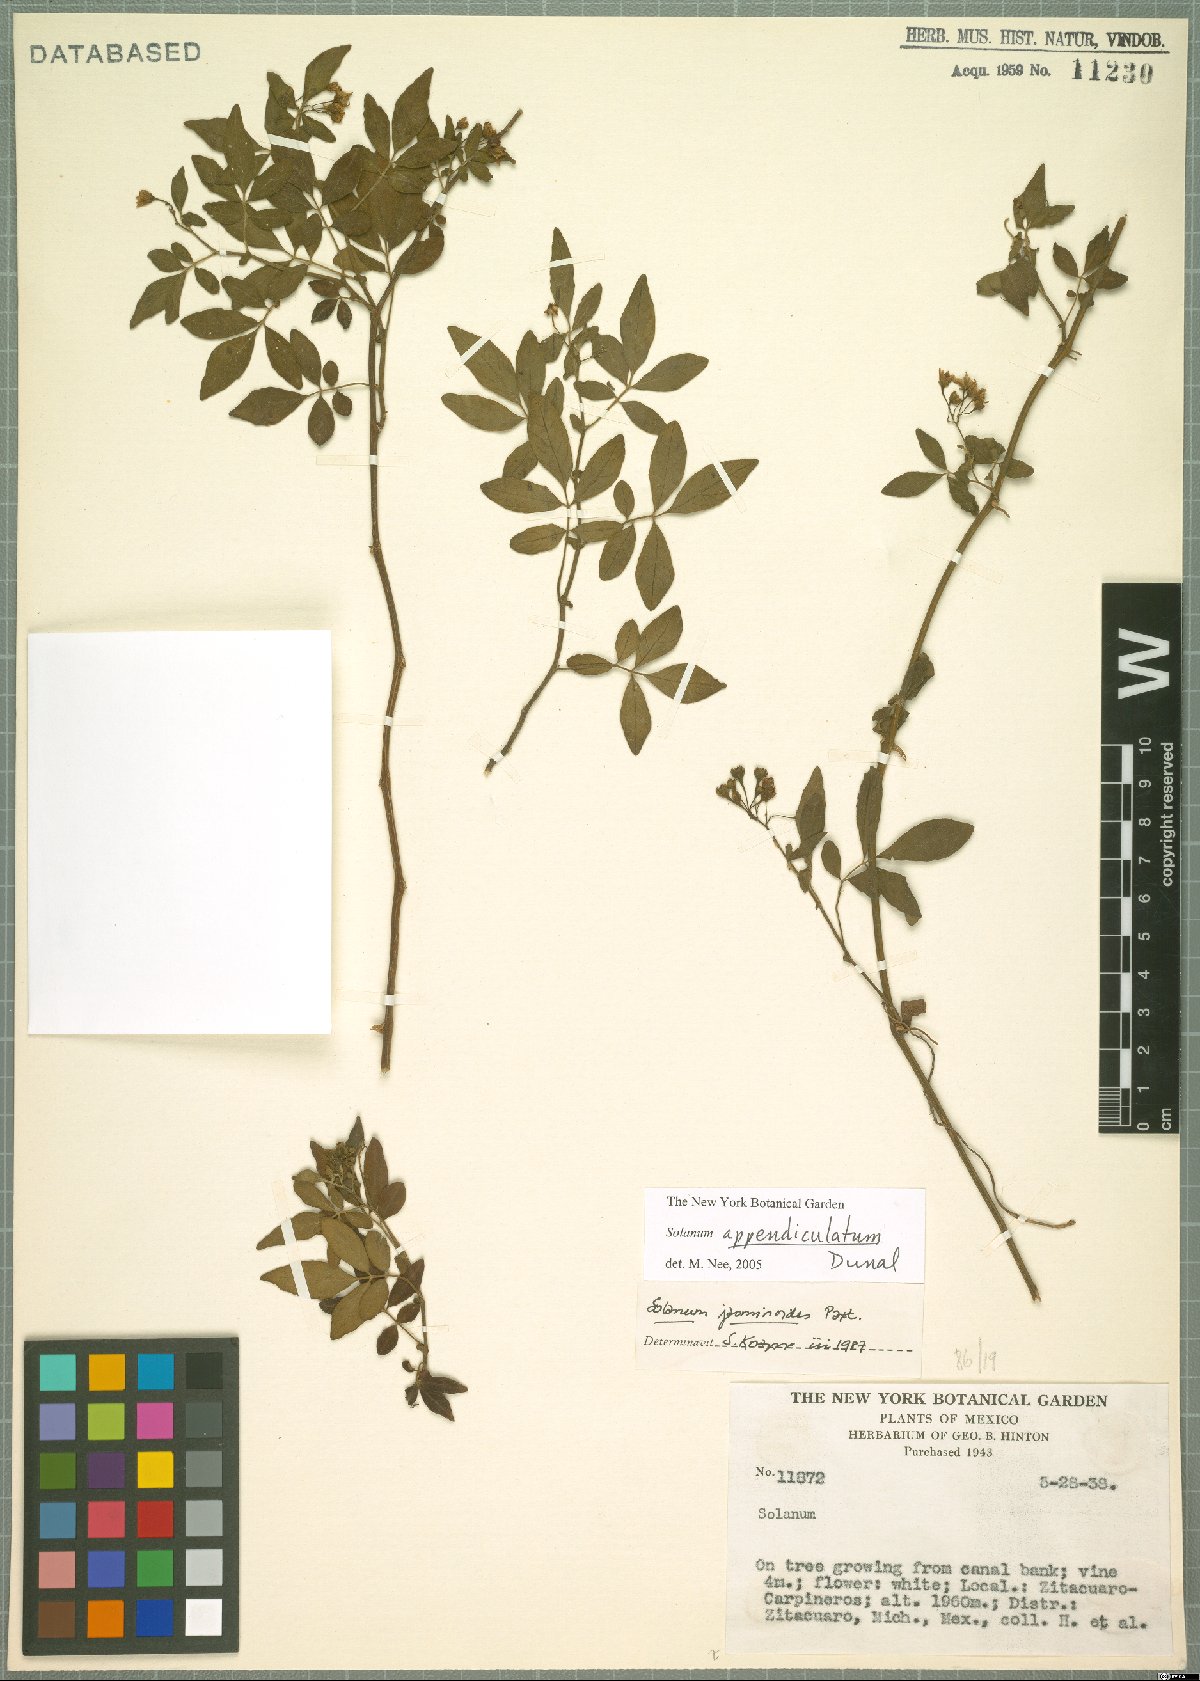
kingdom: Plantae
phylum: Tracheophyta
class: Magnoliopsida
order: Solanales
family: Solanaceae
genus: Solanum
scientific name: Solanum appendiculatum
